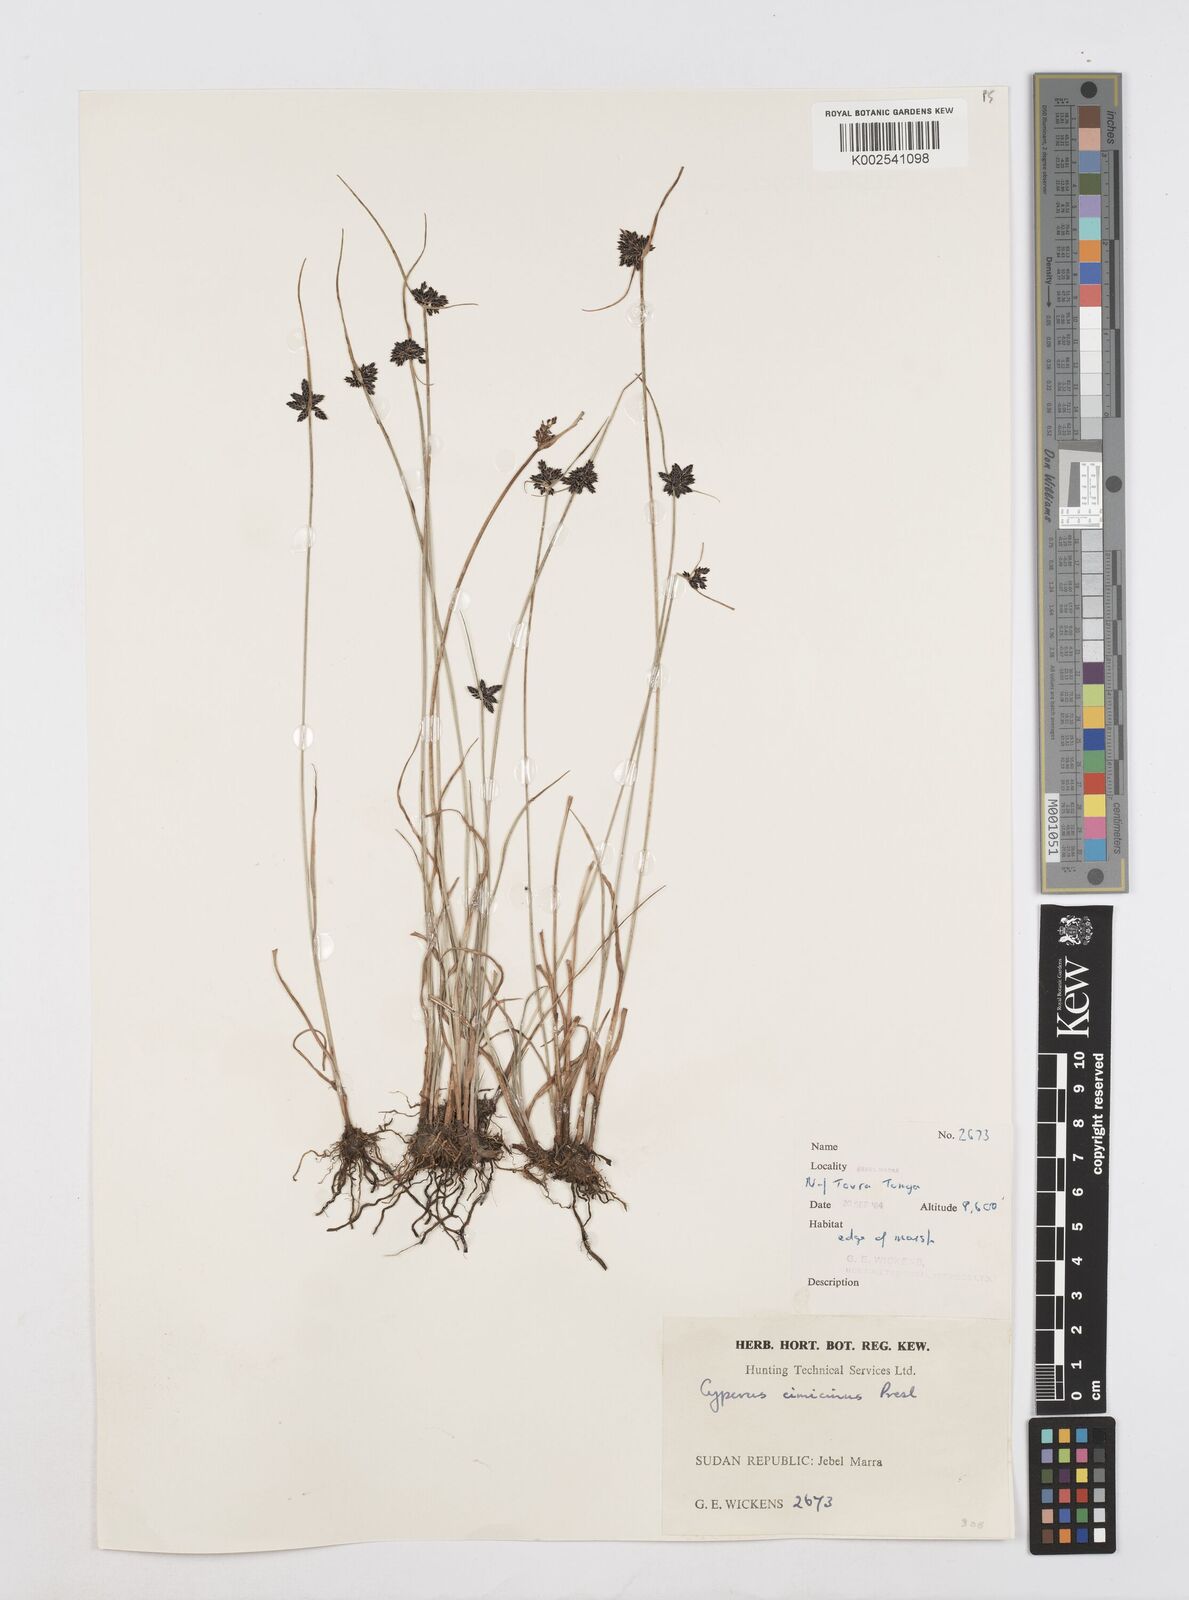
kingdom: Plantae
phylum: Tracheophyta
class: Liliopsida
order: Poales
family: Cyperaceae
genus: Cyperus
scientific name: Cyperus elegantulus
